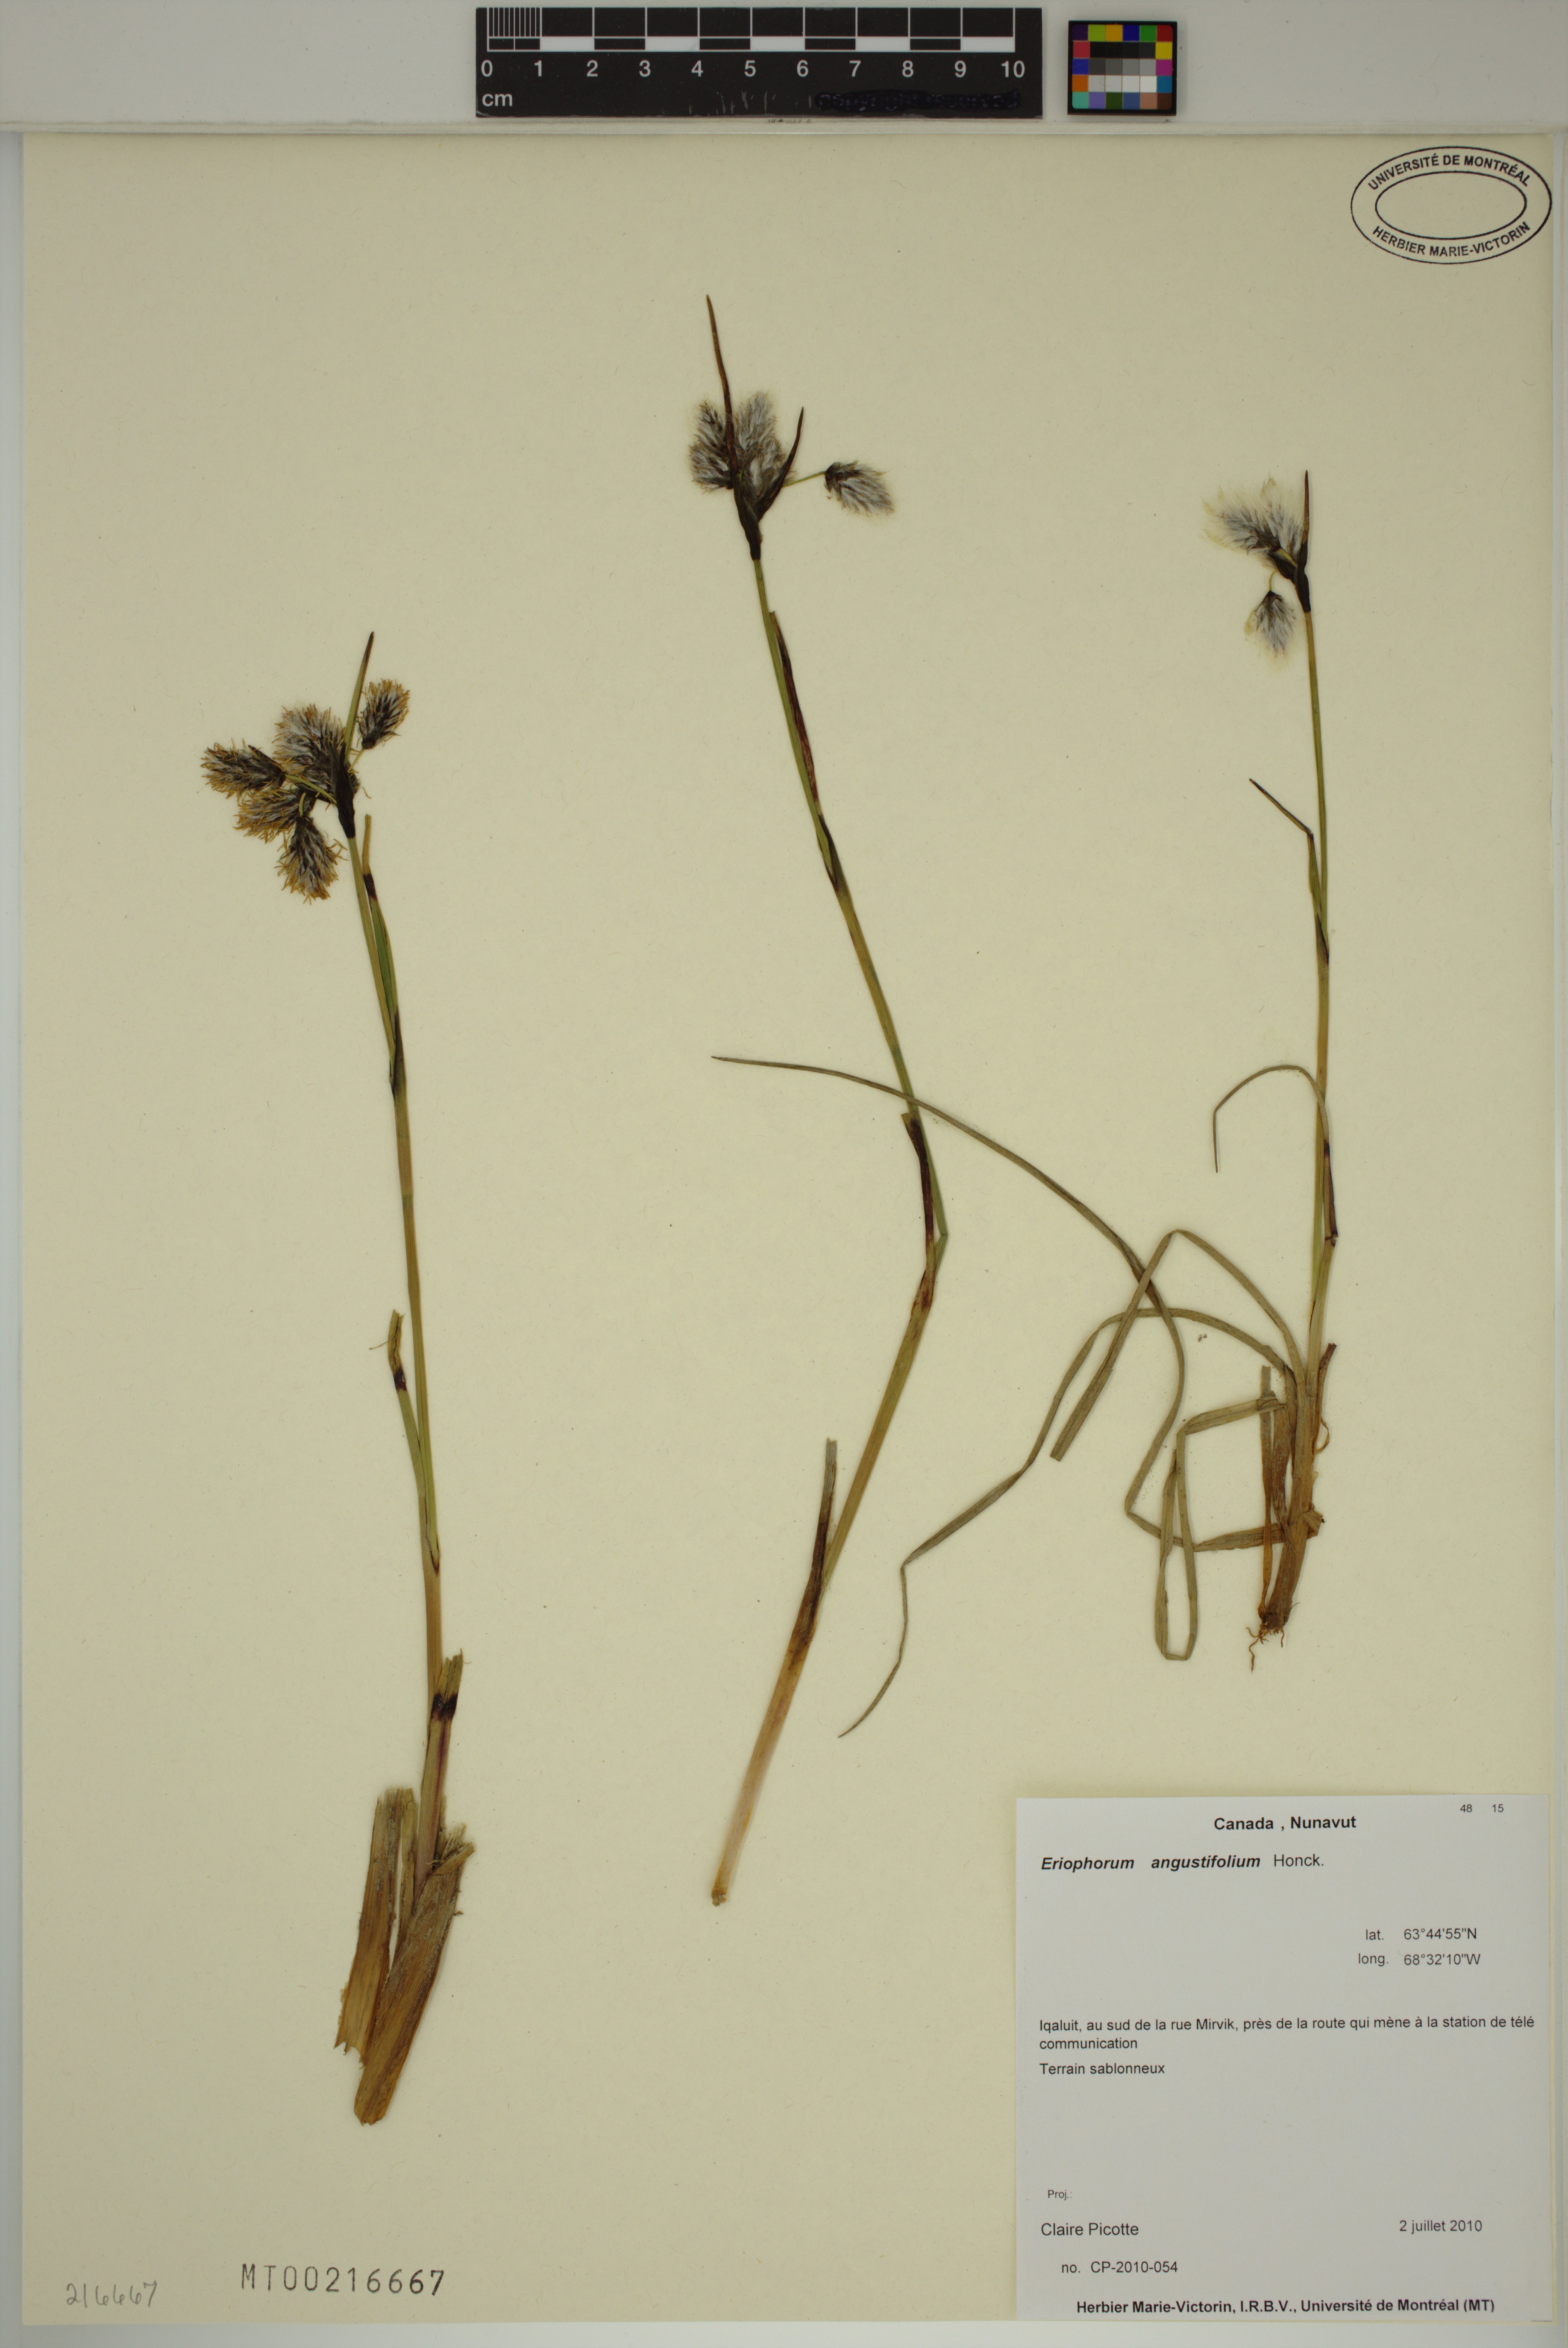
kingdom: Plantae
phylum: Tracheophyta
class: Liliopsida
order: Poales
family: Cyperaceae
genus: Eriophorum
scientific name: Eriophorum angustifolium
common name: Common cottongrass
